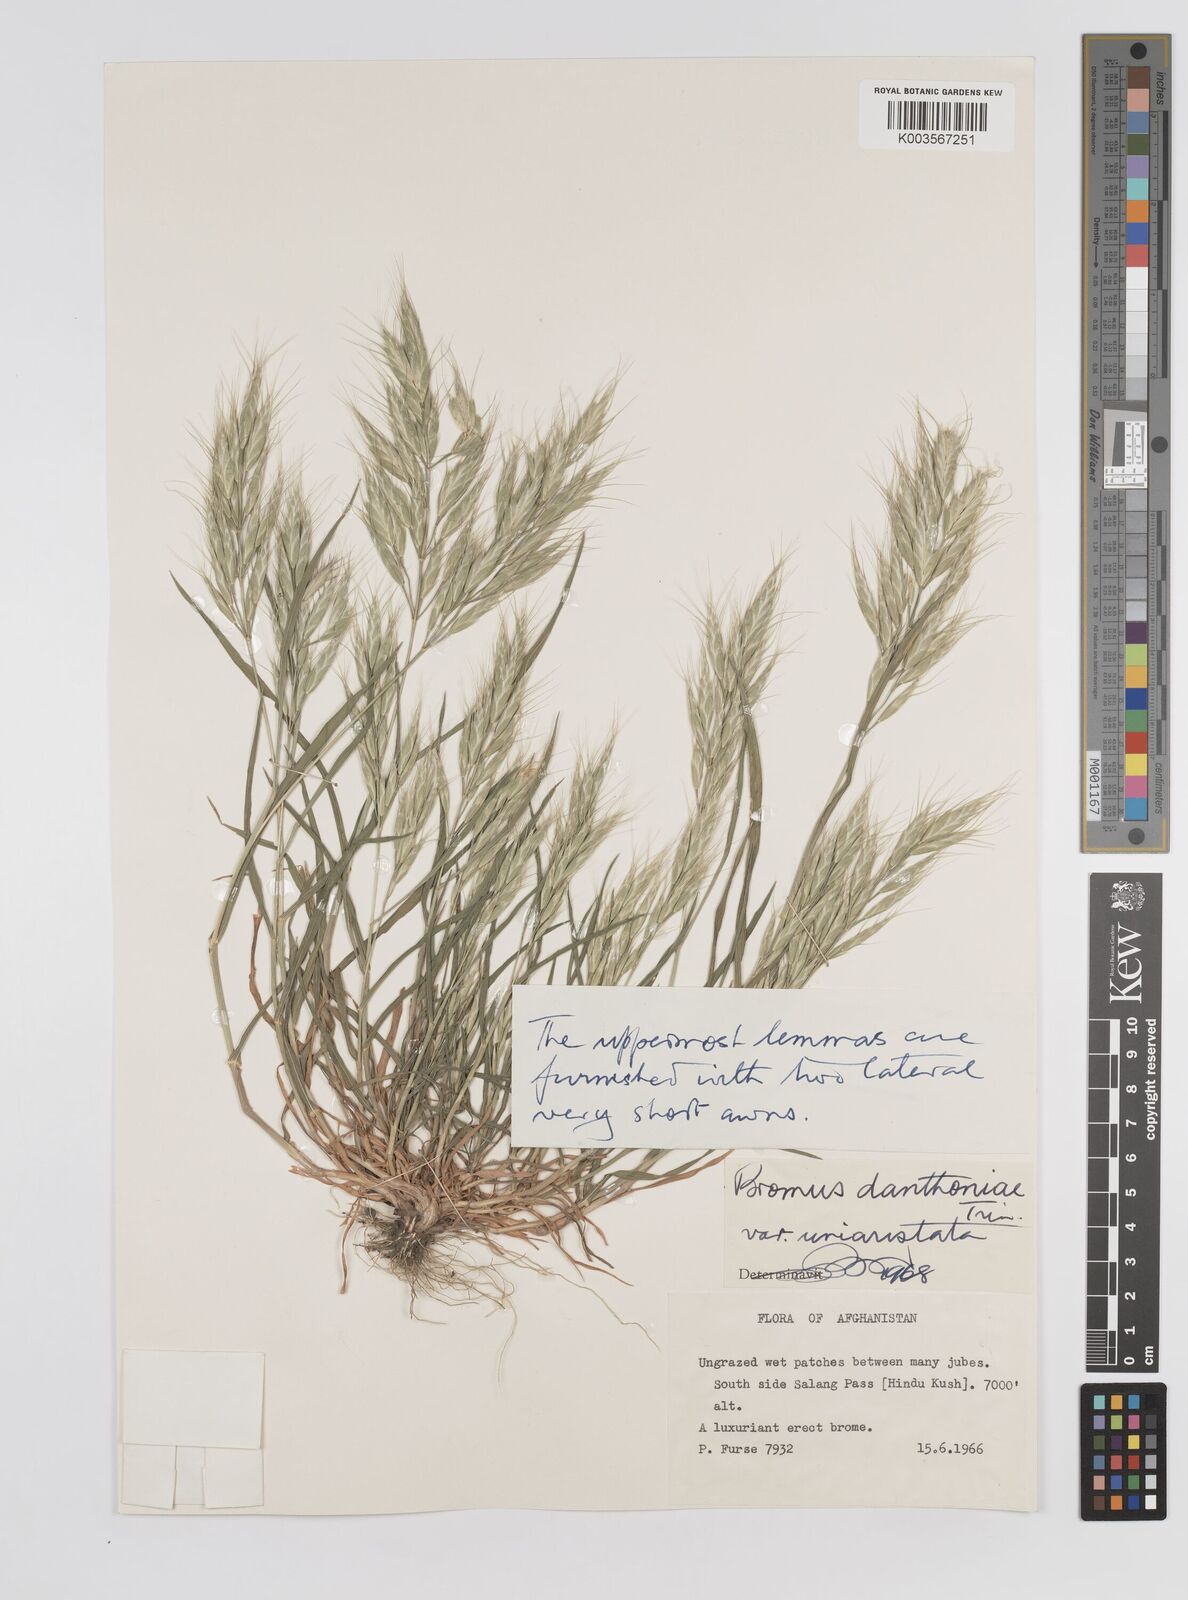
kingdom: Plantae
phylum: Tracheophyta
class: Liliopsida
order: Poales
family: Poaceae
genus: Bromus
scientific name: Bromus danthoniae
